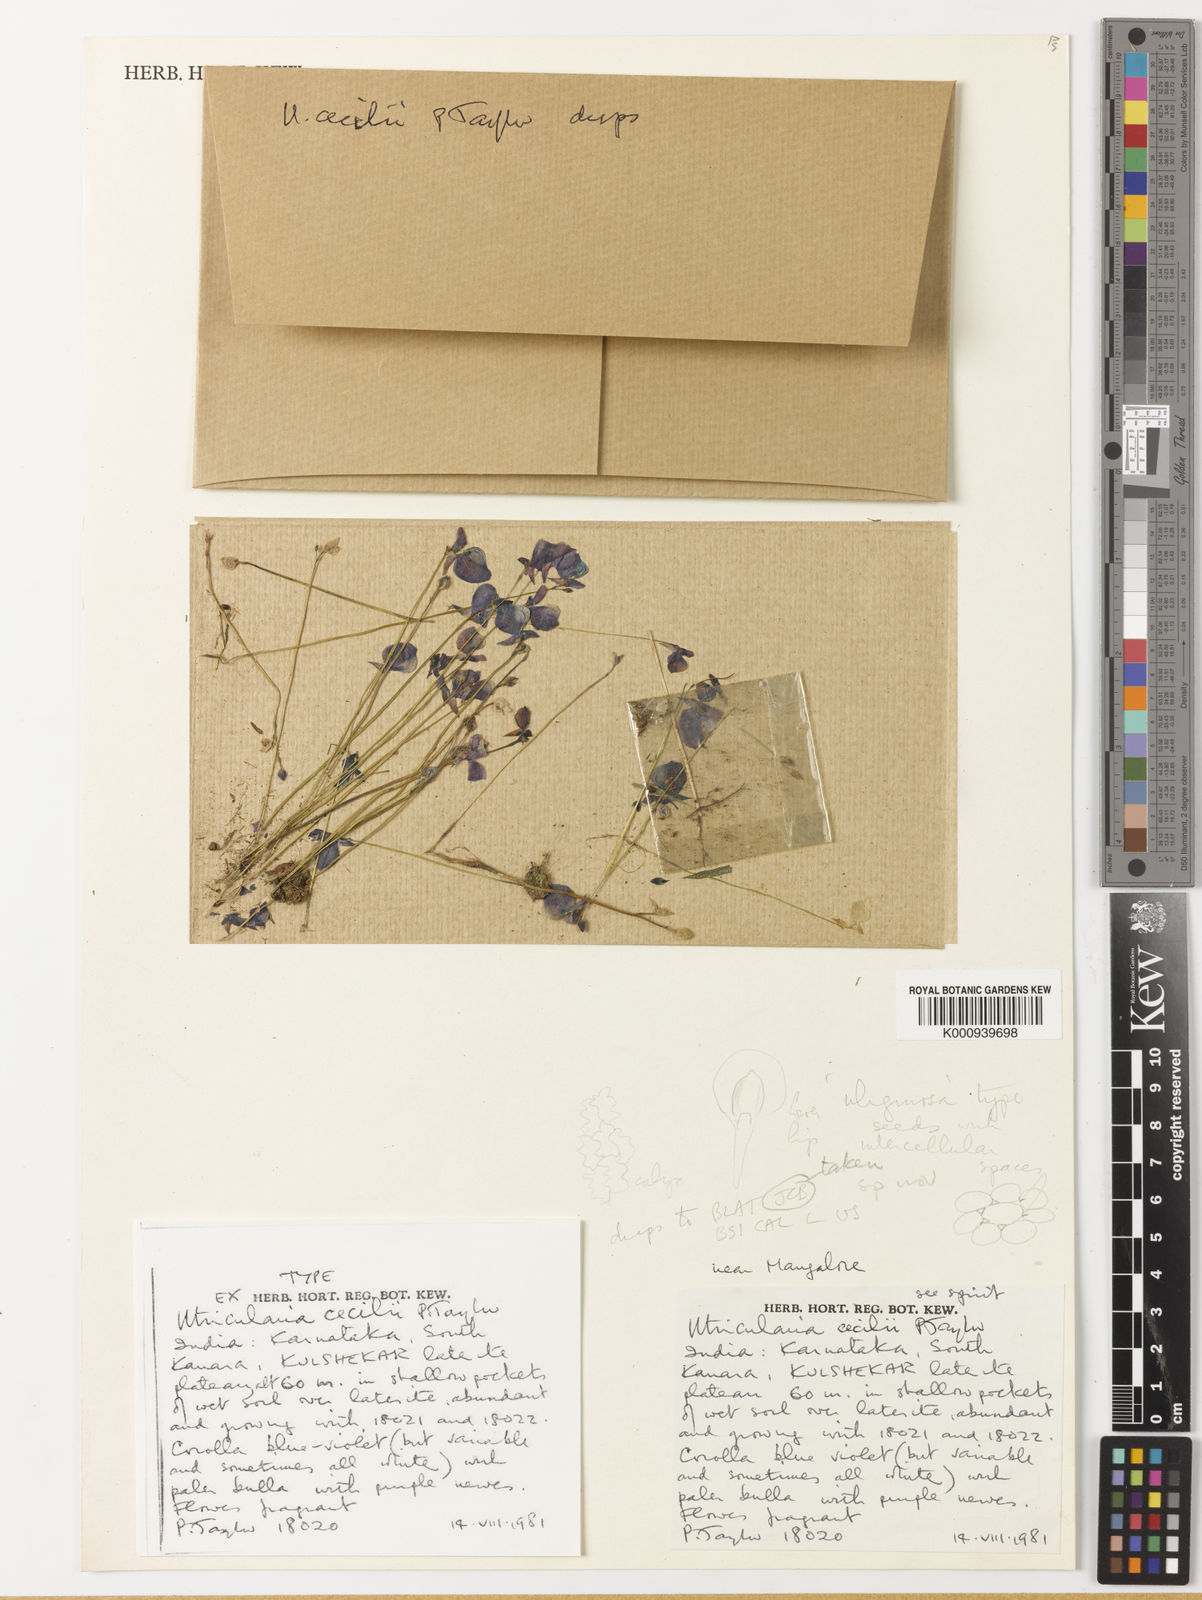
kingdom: Plantae
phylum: Tracheophyta
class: Magnoliopsida
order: Lamiales
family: Lentibulariaceae
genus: Utricularia
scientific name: Utricularia cecilii
